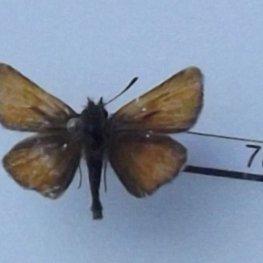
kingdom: Animalia
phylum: Arthropoda
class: Insecta
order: Lepidoptera
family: Hesperiidae
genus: Thymelicus
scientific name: Thymelicus lineola
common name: European Skipper
